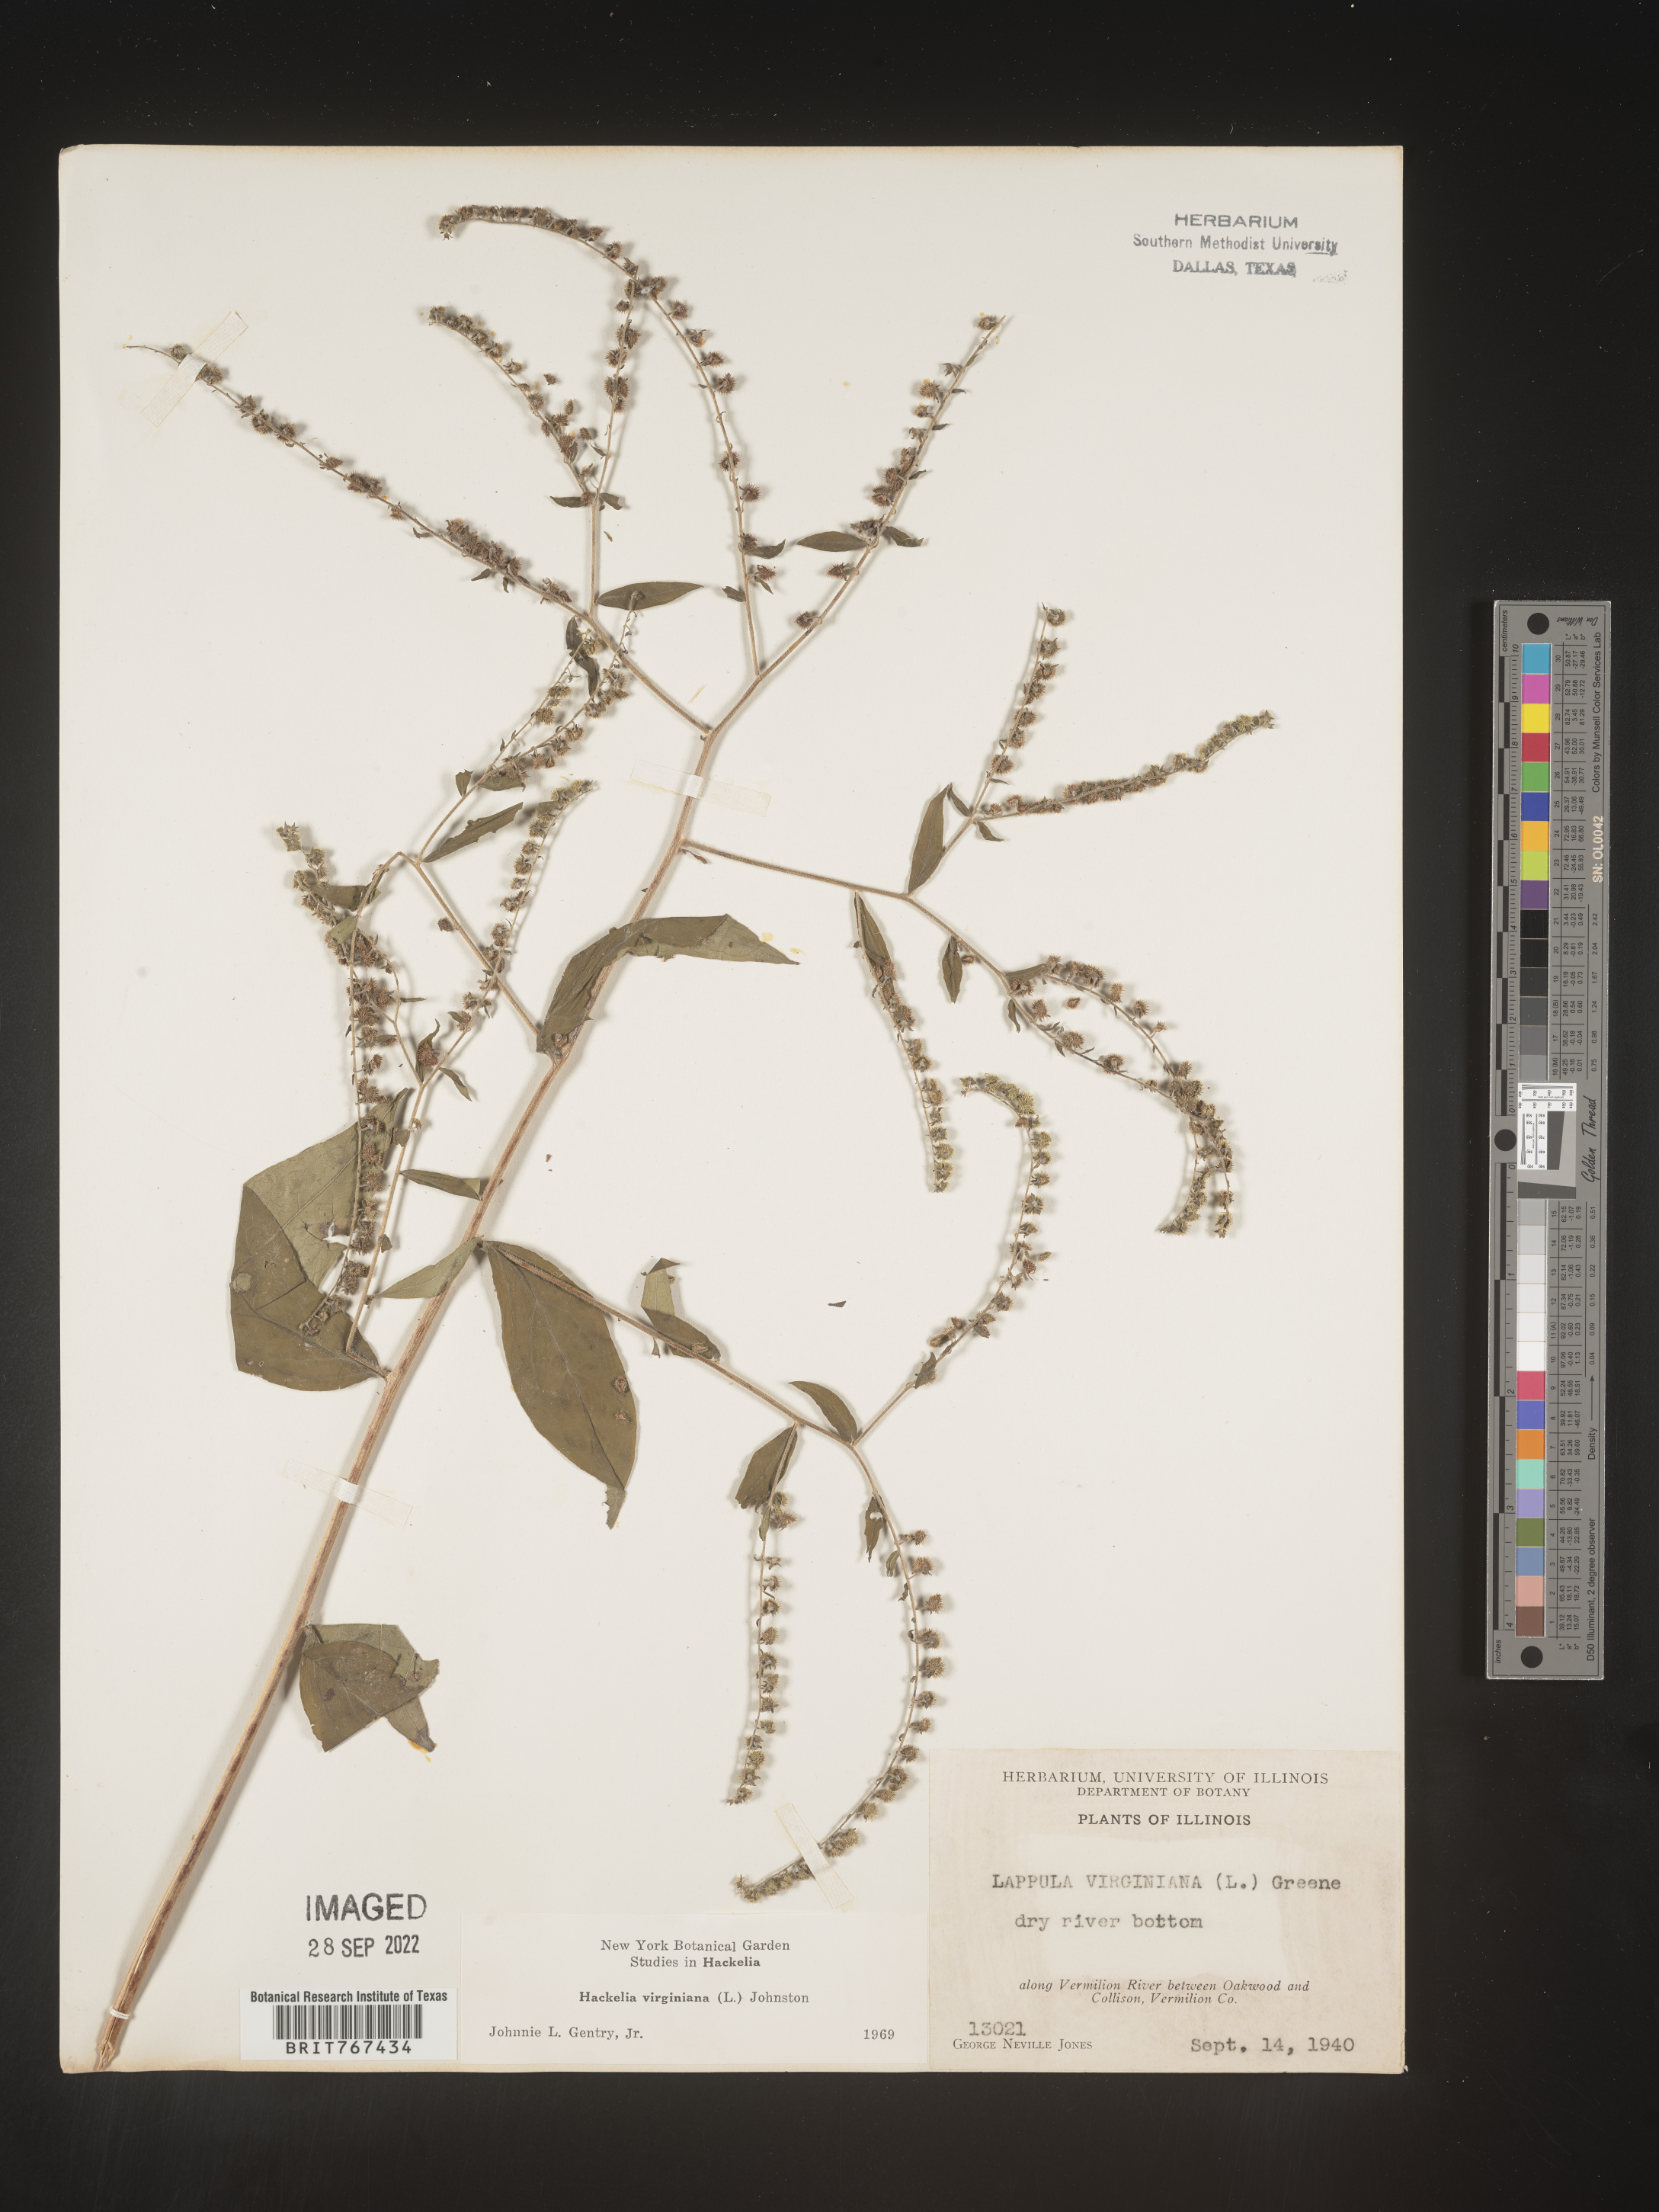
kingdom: Plantae
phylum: Tracheophyta
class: Magnoliopsida
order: Boraginales
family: Boraginaceae
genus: Hackelia
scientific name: Hackelia virginiana
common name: Beggar's-lice
